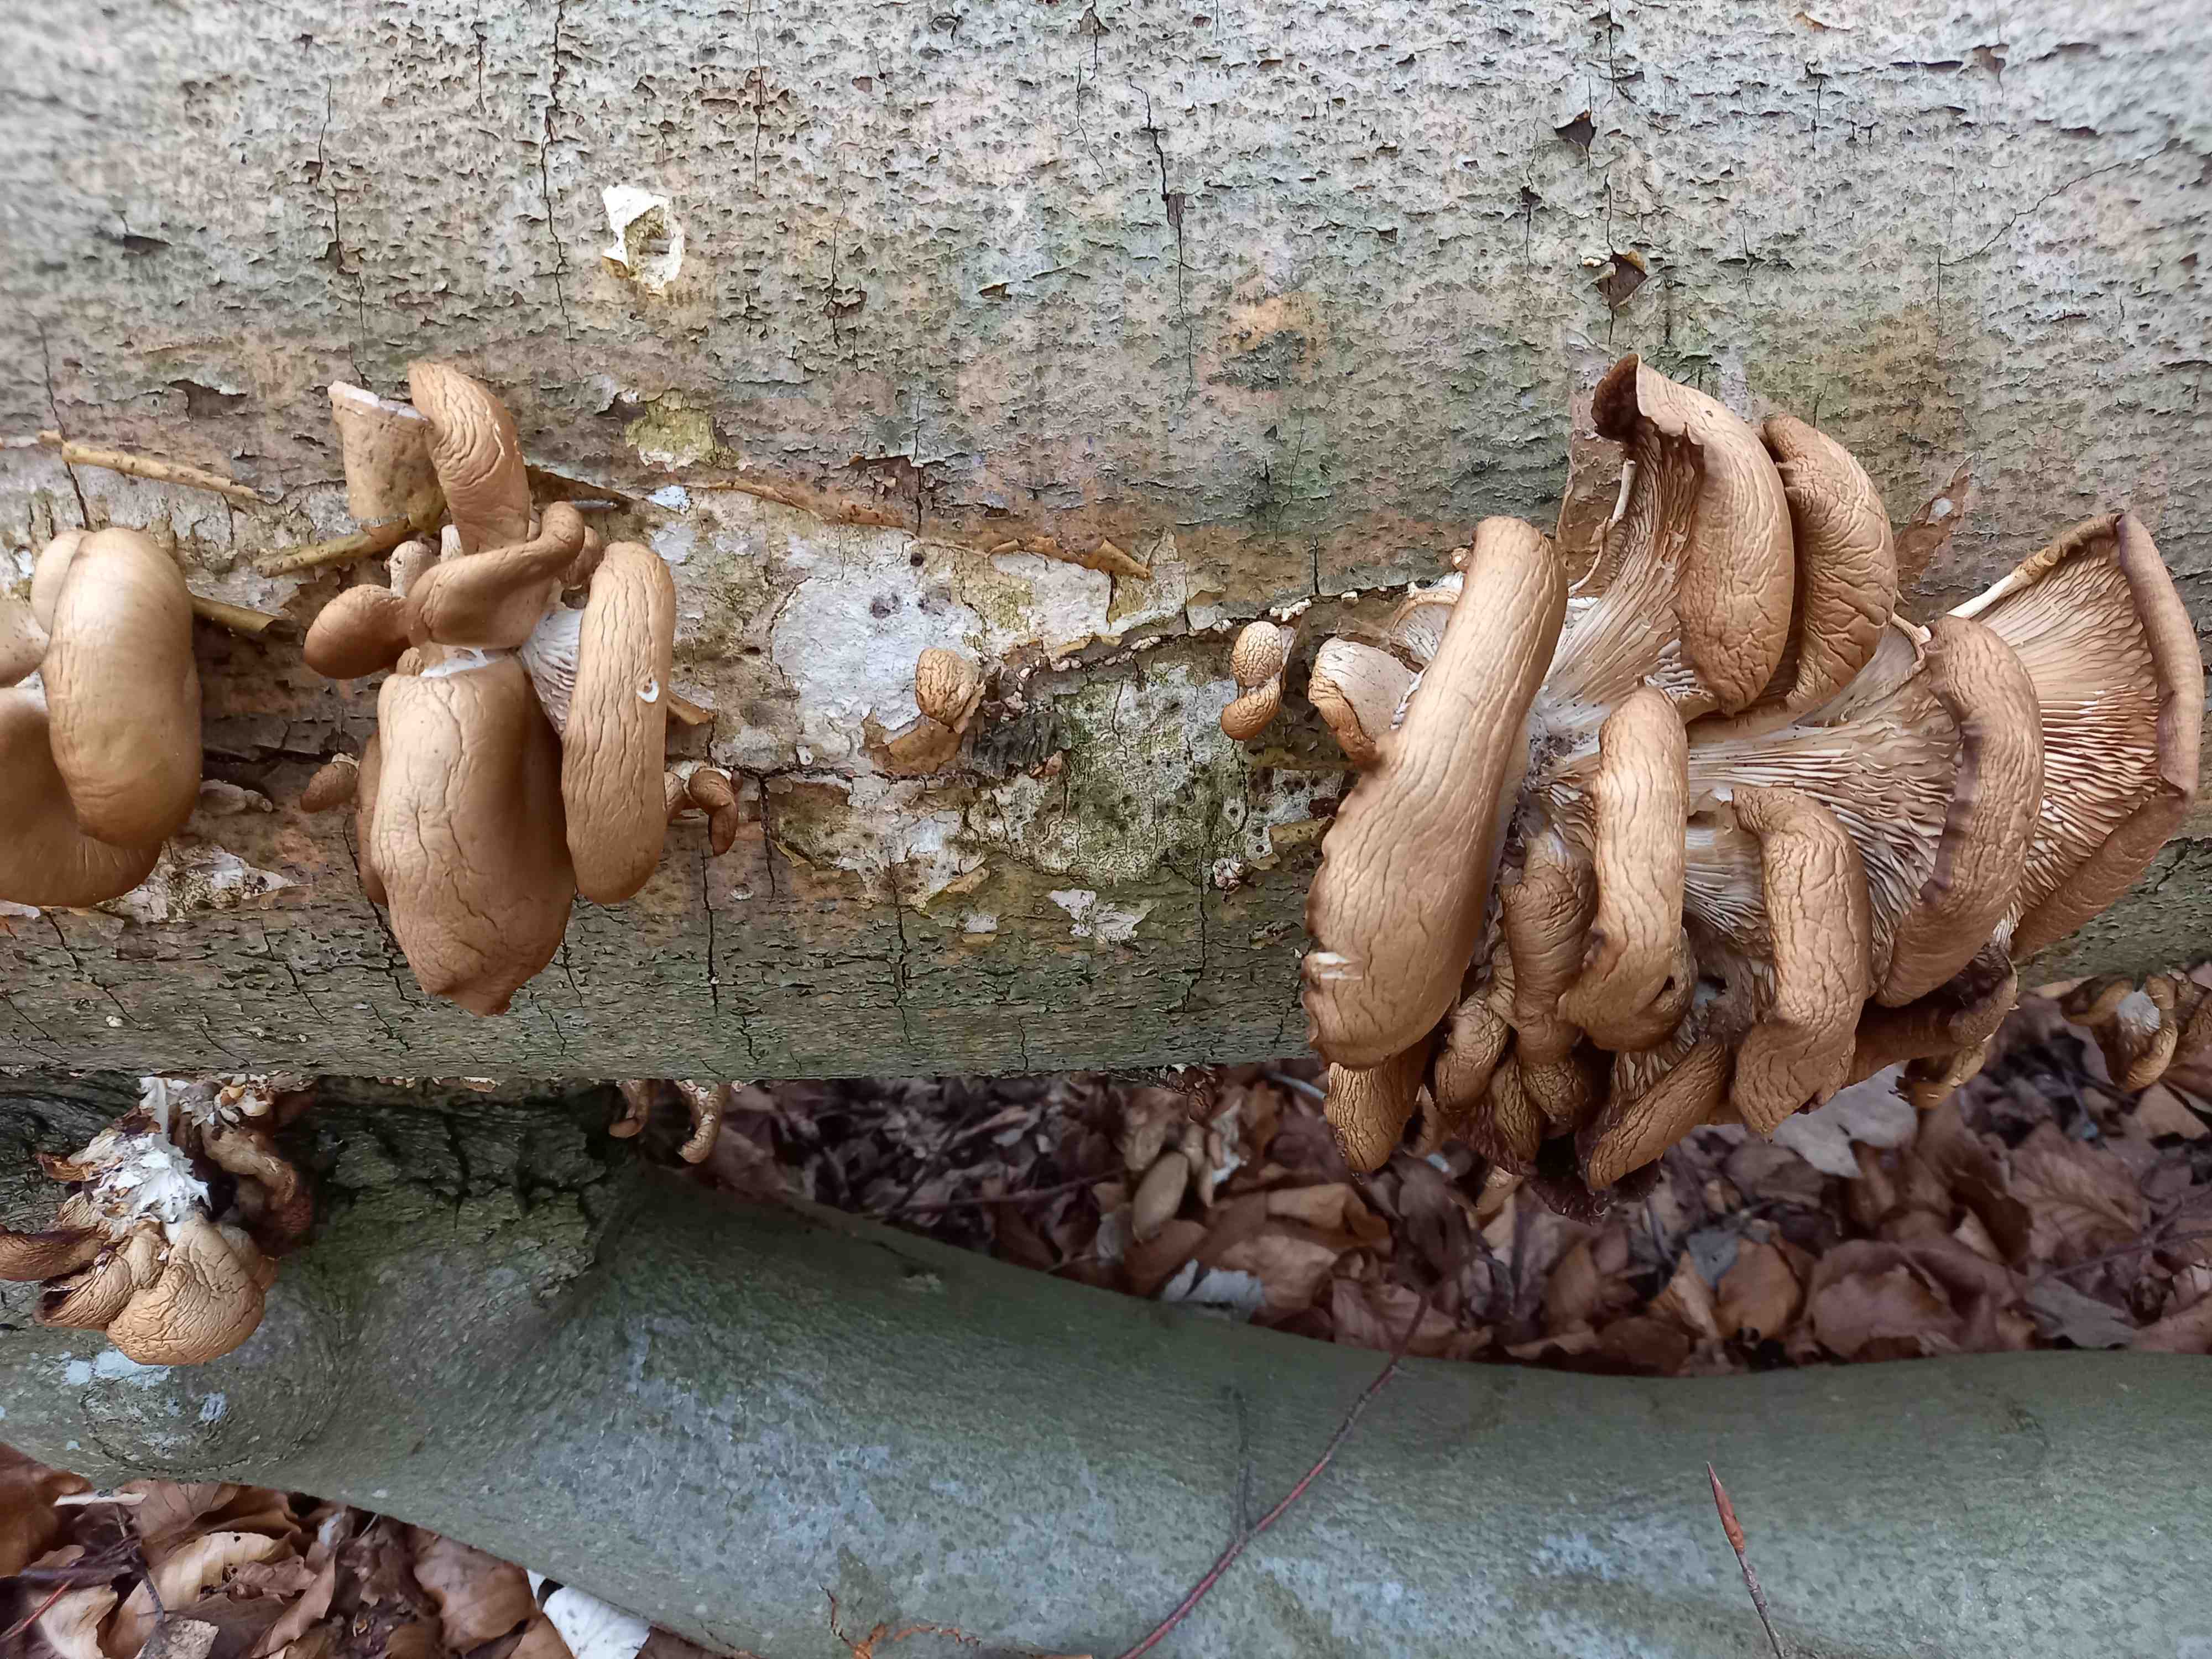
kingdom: Fungi
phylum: Basidiomycota
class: Agaricomycetes
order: Agaricales
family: Pleurotaceae
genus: Pleurotus
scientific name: Pleurotus ostreatus
